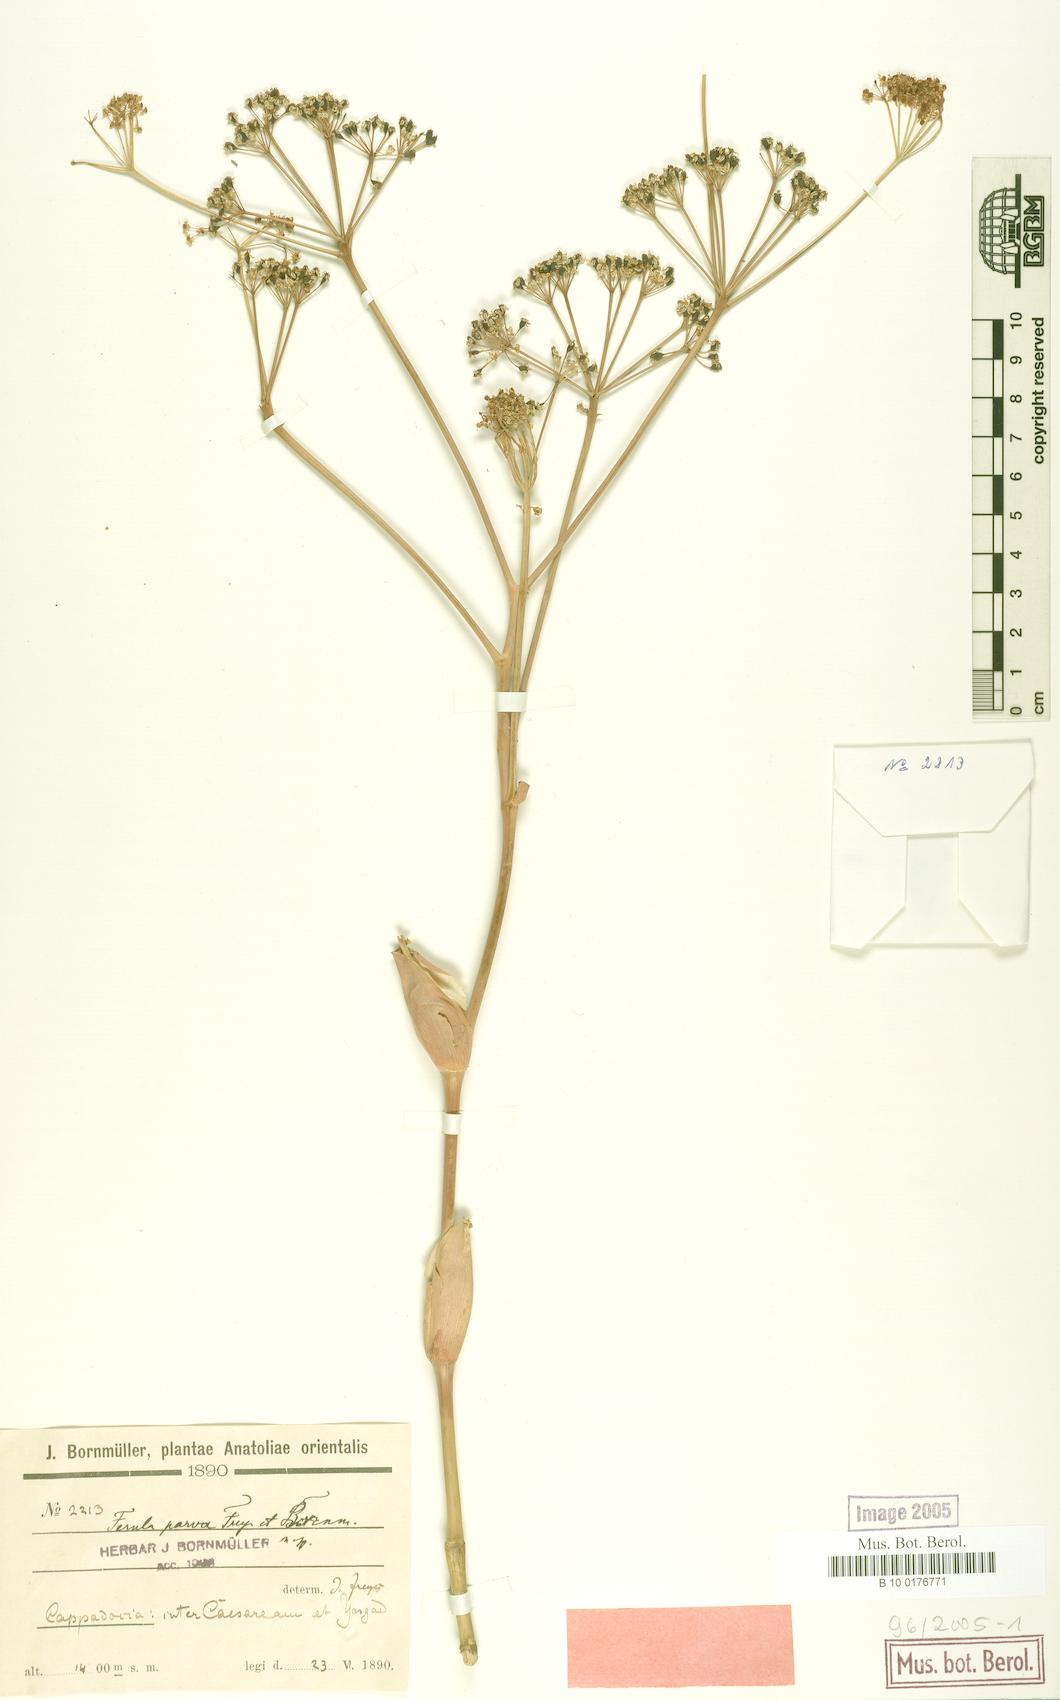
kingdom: Plantae
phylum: Tracheophyta
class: Magnoliopsida
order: Apiales
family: Apiaceae
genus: Ferula
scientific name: Ferula parva
